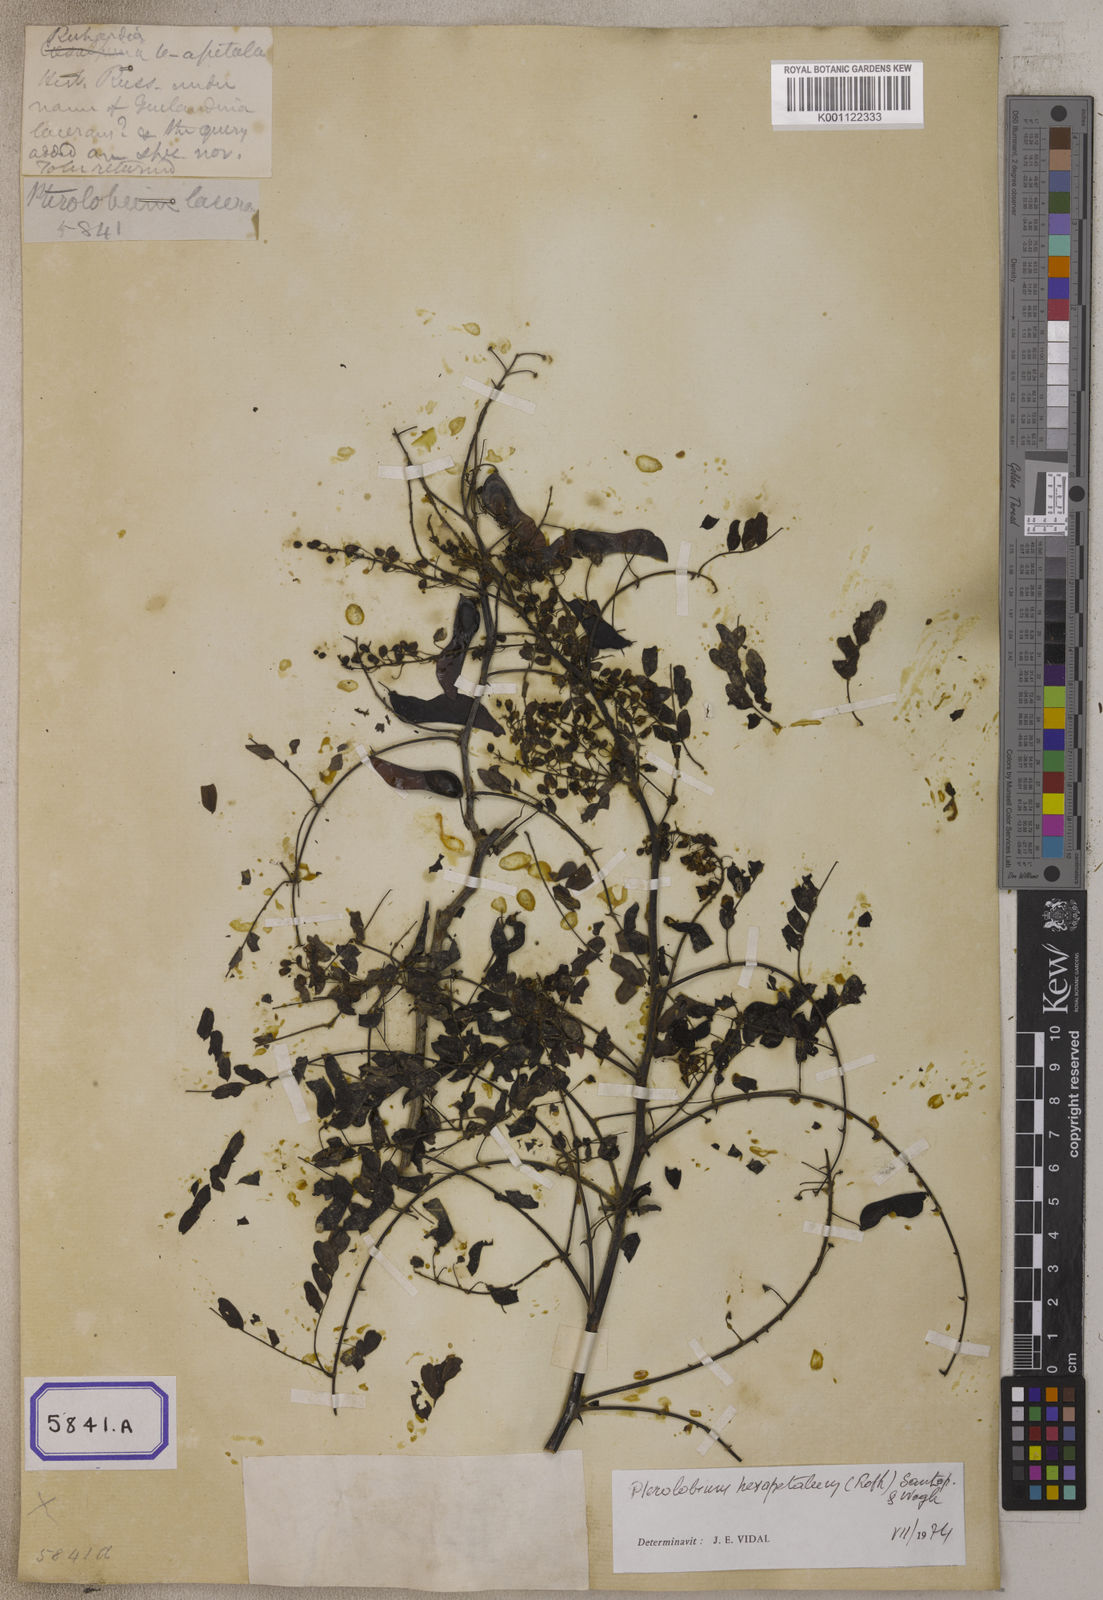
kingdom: Plantae
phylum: Tracheophyta
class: Magnoliopsida
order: Fabales
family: Fabaceae
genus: Pterolobium
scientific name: Pterolobium hexapetalum
